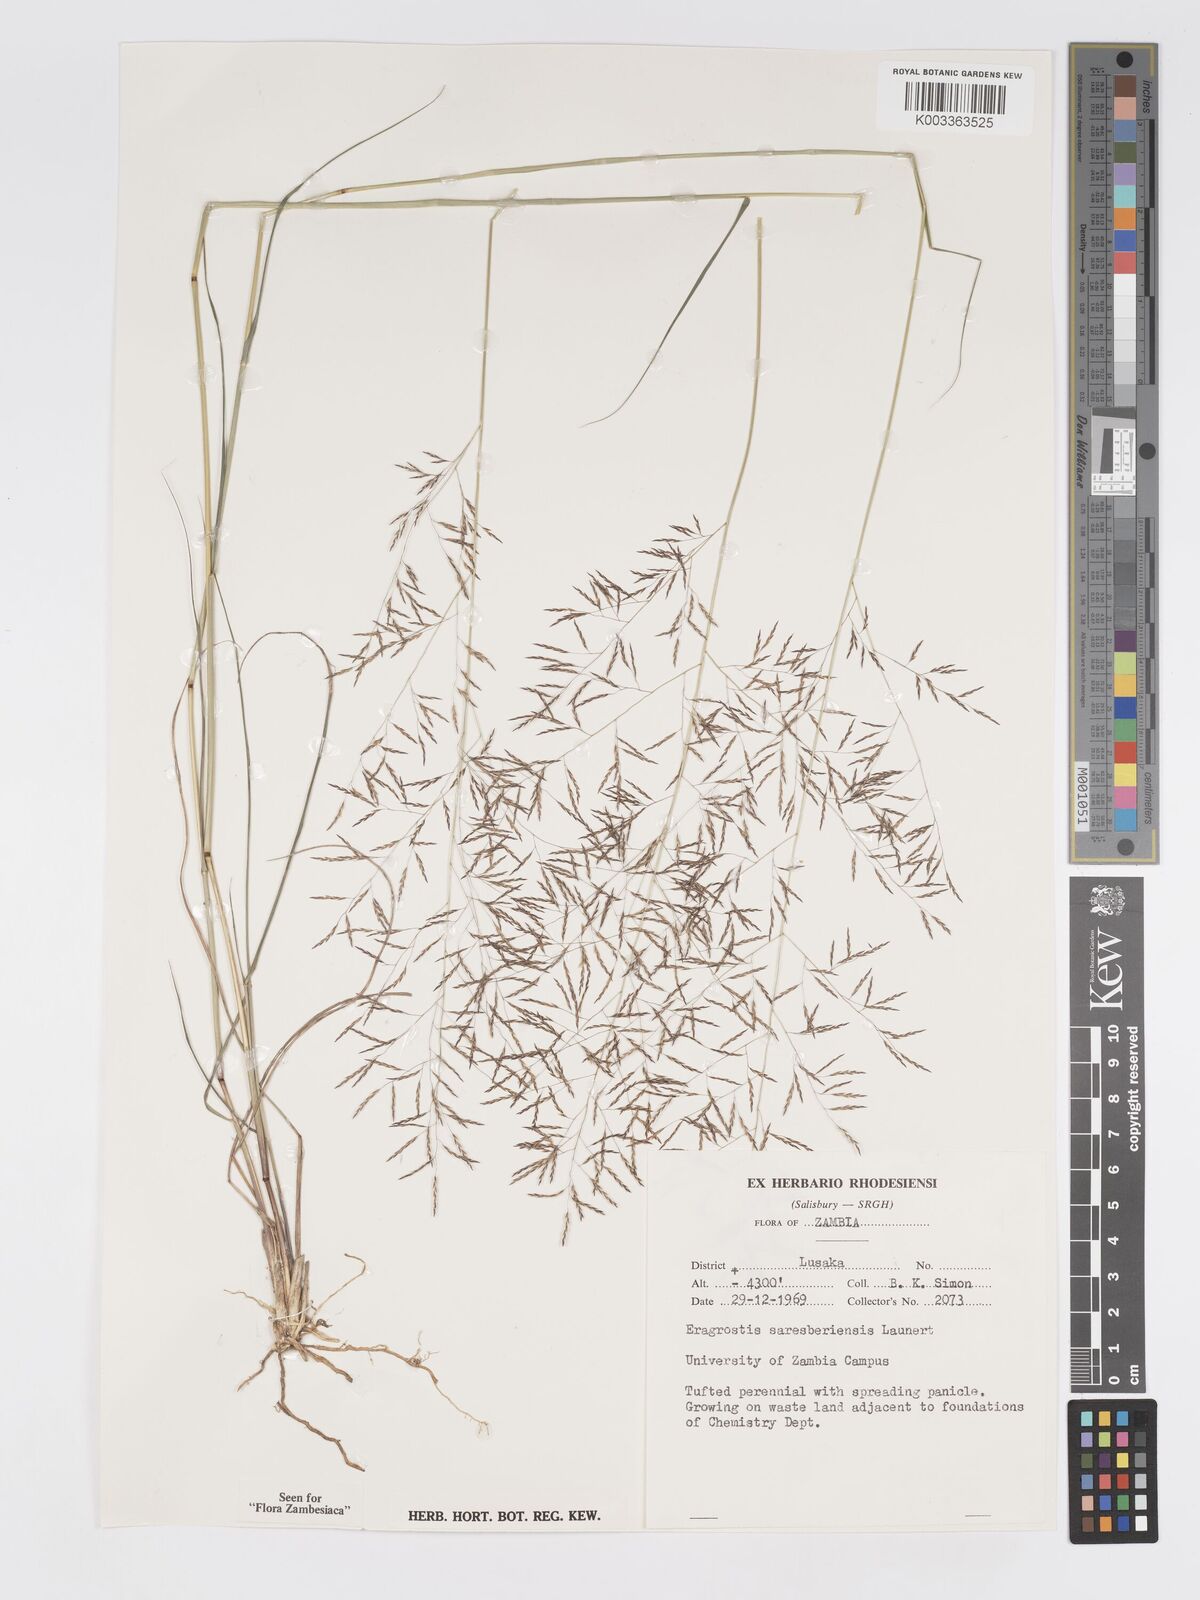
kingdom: Plantae
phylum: Tracheophyta
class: Liliopsida
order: Poales
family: Poaceae
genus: Eragrostis
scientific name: Eragrostis saresberiensis
